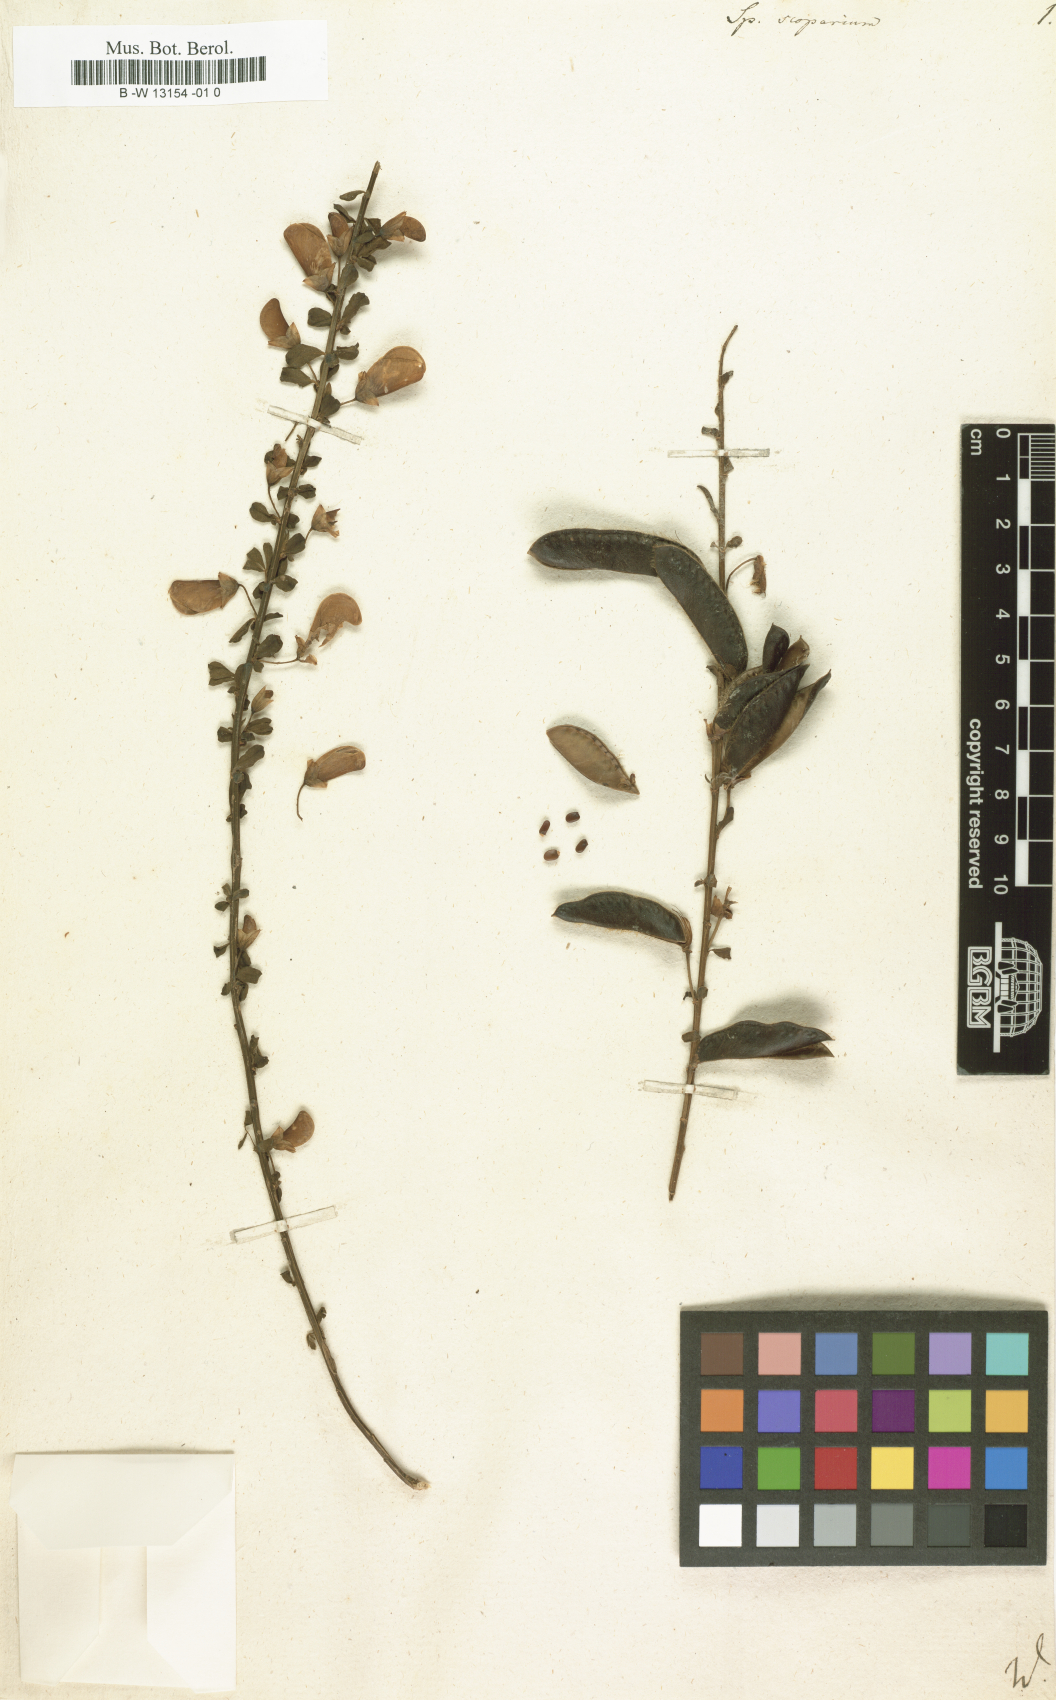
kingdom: Plantae
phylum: Tracheophyta
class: Magnoliopsida
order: Fabales
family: Fabaceae
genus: Lebeckia
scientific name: Lebeckia sepiaria
